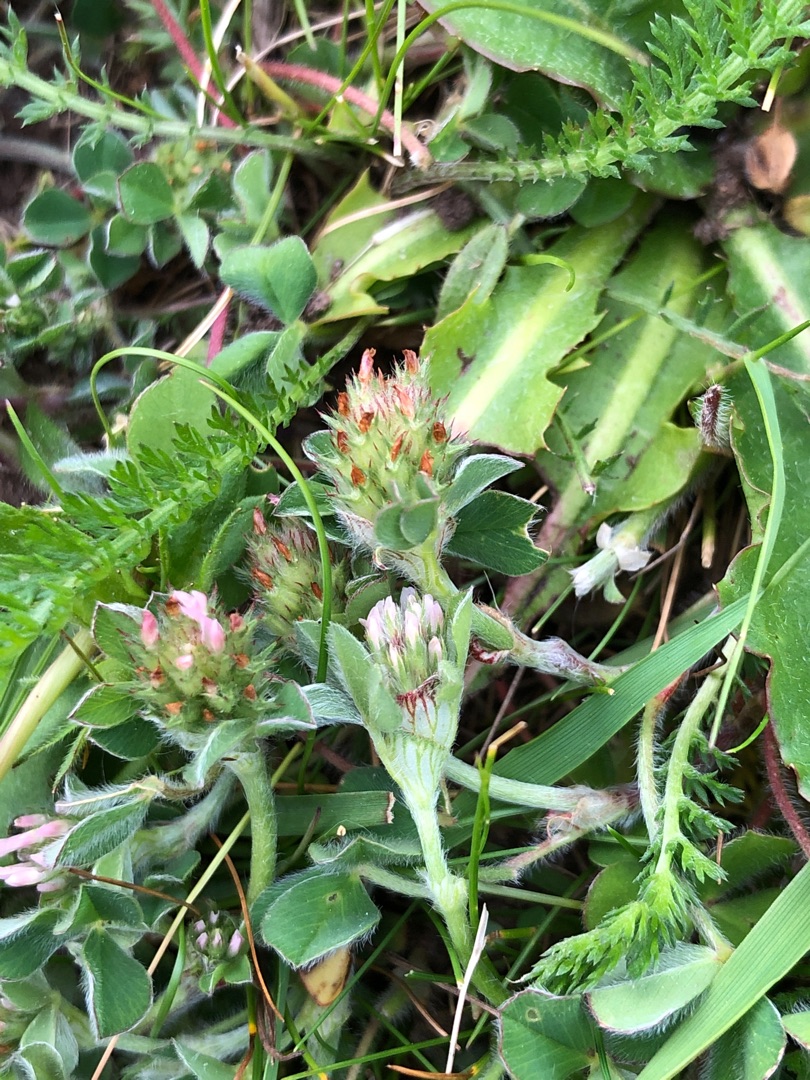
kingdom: Plantae
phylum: Tracheophyta
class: Magnoliopsida
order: Fabales
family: Fabaceae
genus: Trifolium
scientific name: Trifolium striatum
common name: Stribet kløver
